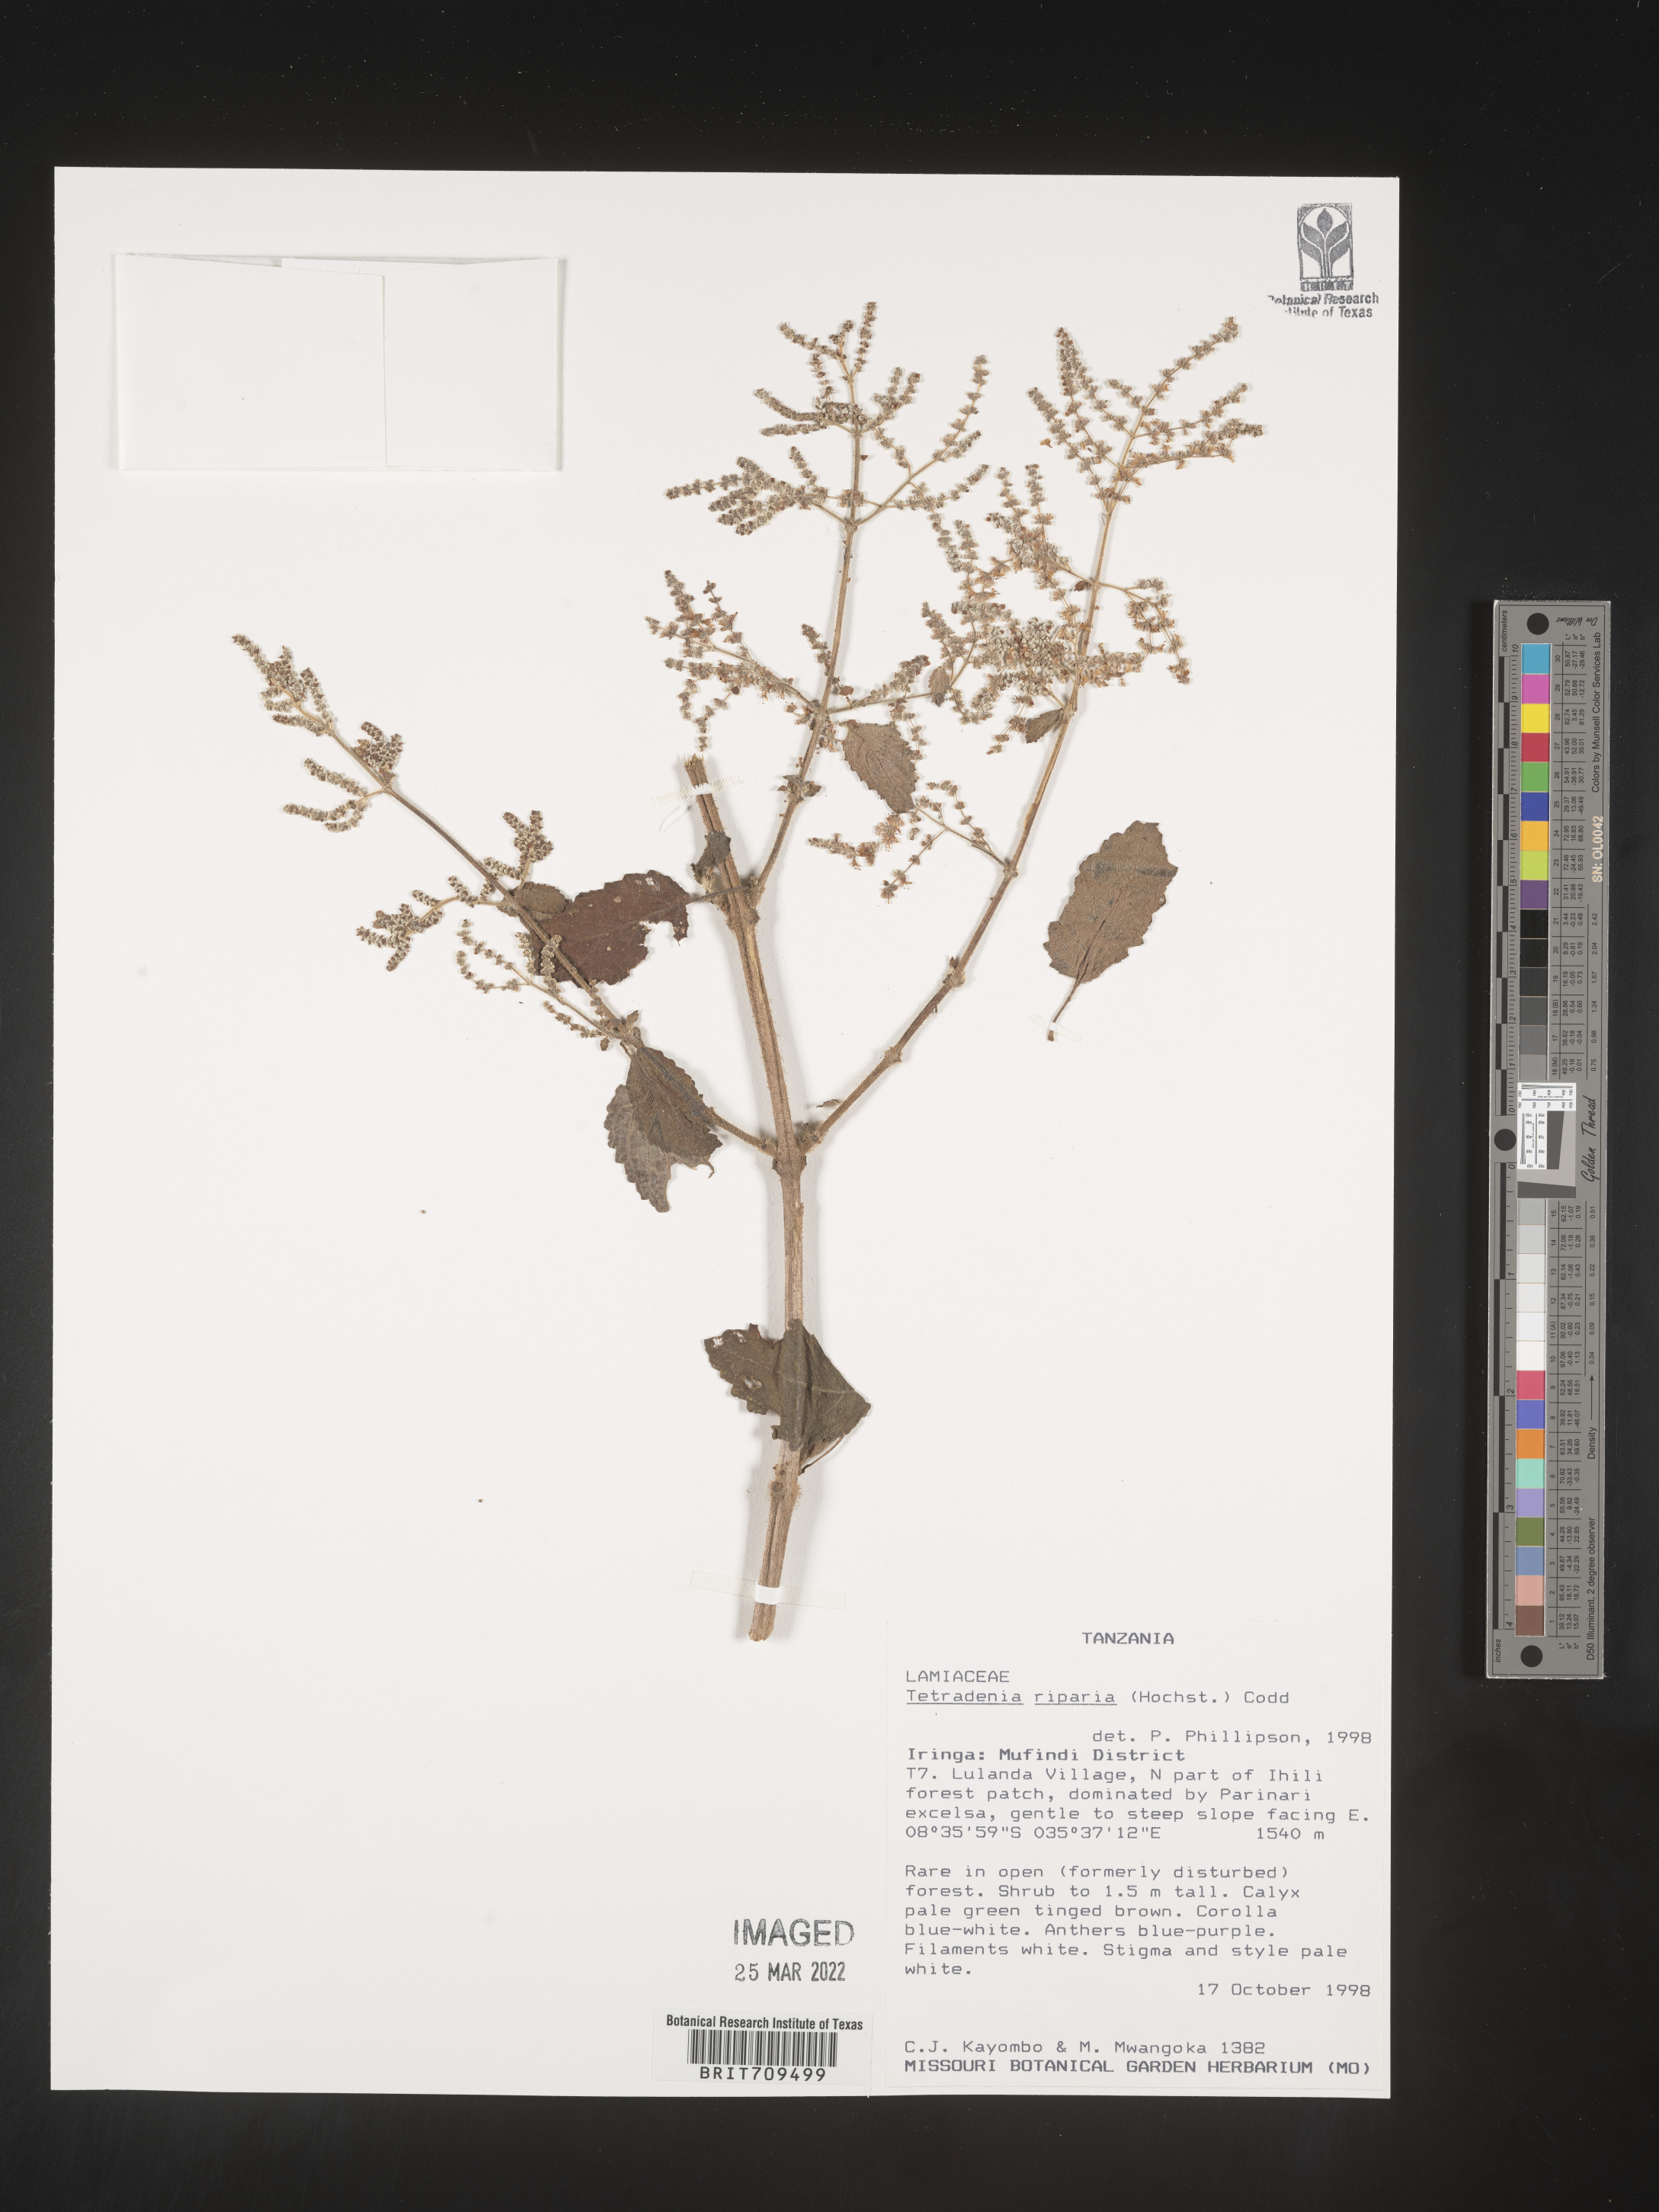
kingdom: Plantae
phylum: Tracheophyta
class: Magnoliopsida
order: Lamiales
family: Lamiaceae
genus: Tetradenia
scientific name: Tetradenia
